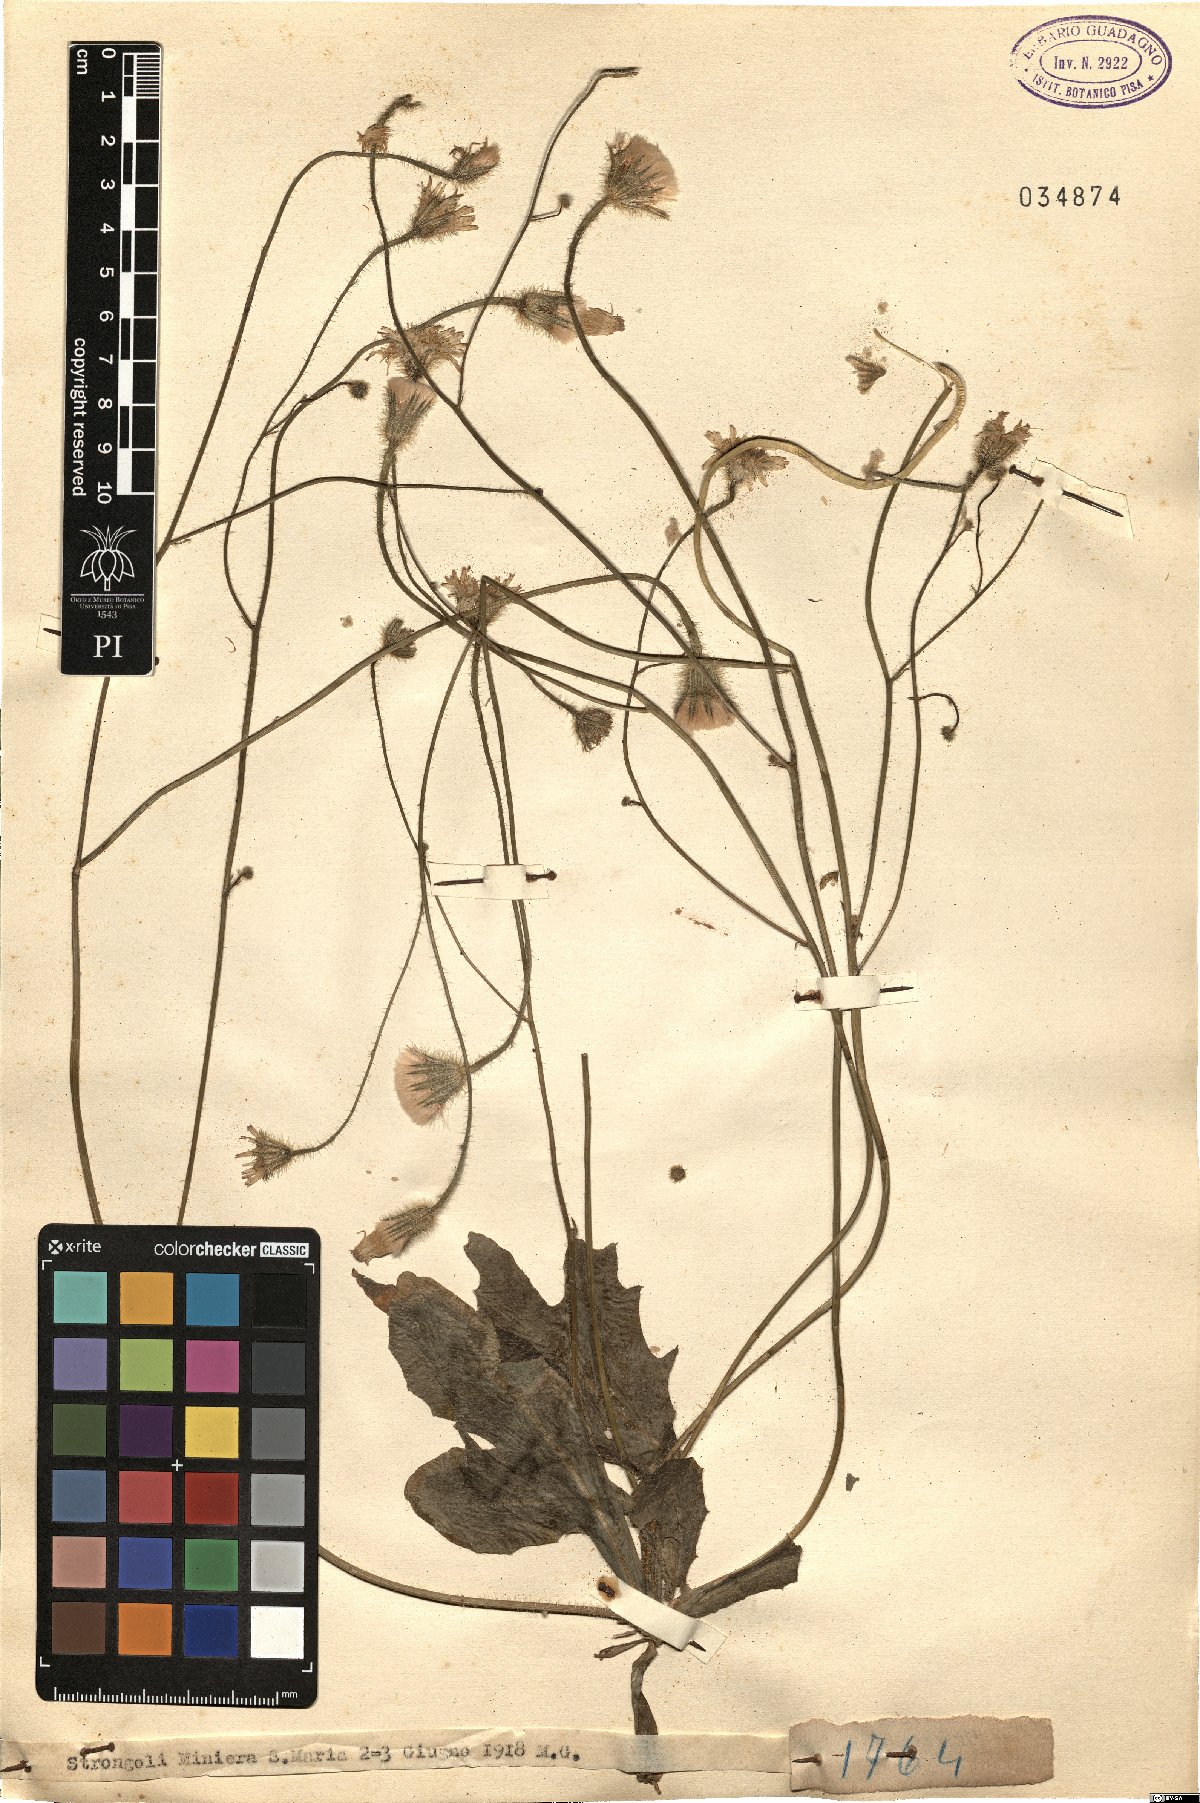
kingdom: Plantae
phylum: Tracheophyta
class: Magnoliopsida
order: Asterales
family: Asteraceae
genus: Hypochaeris
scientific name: Hypochaeris
